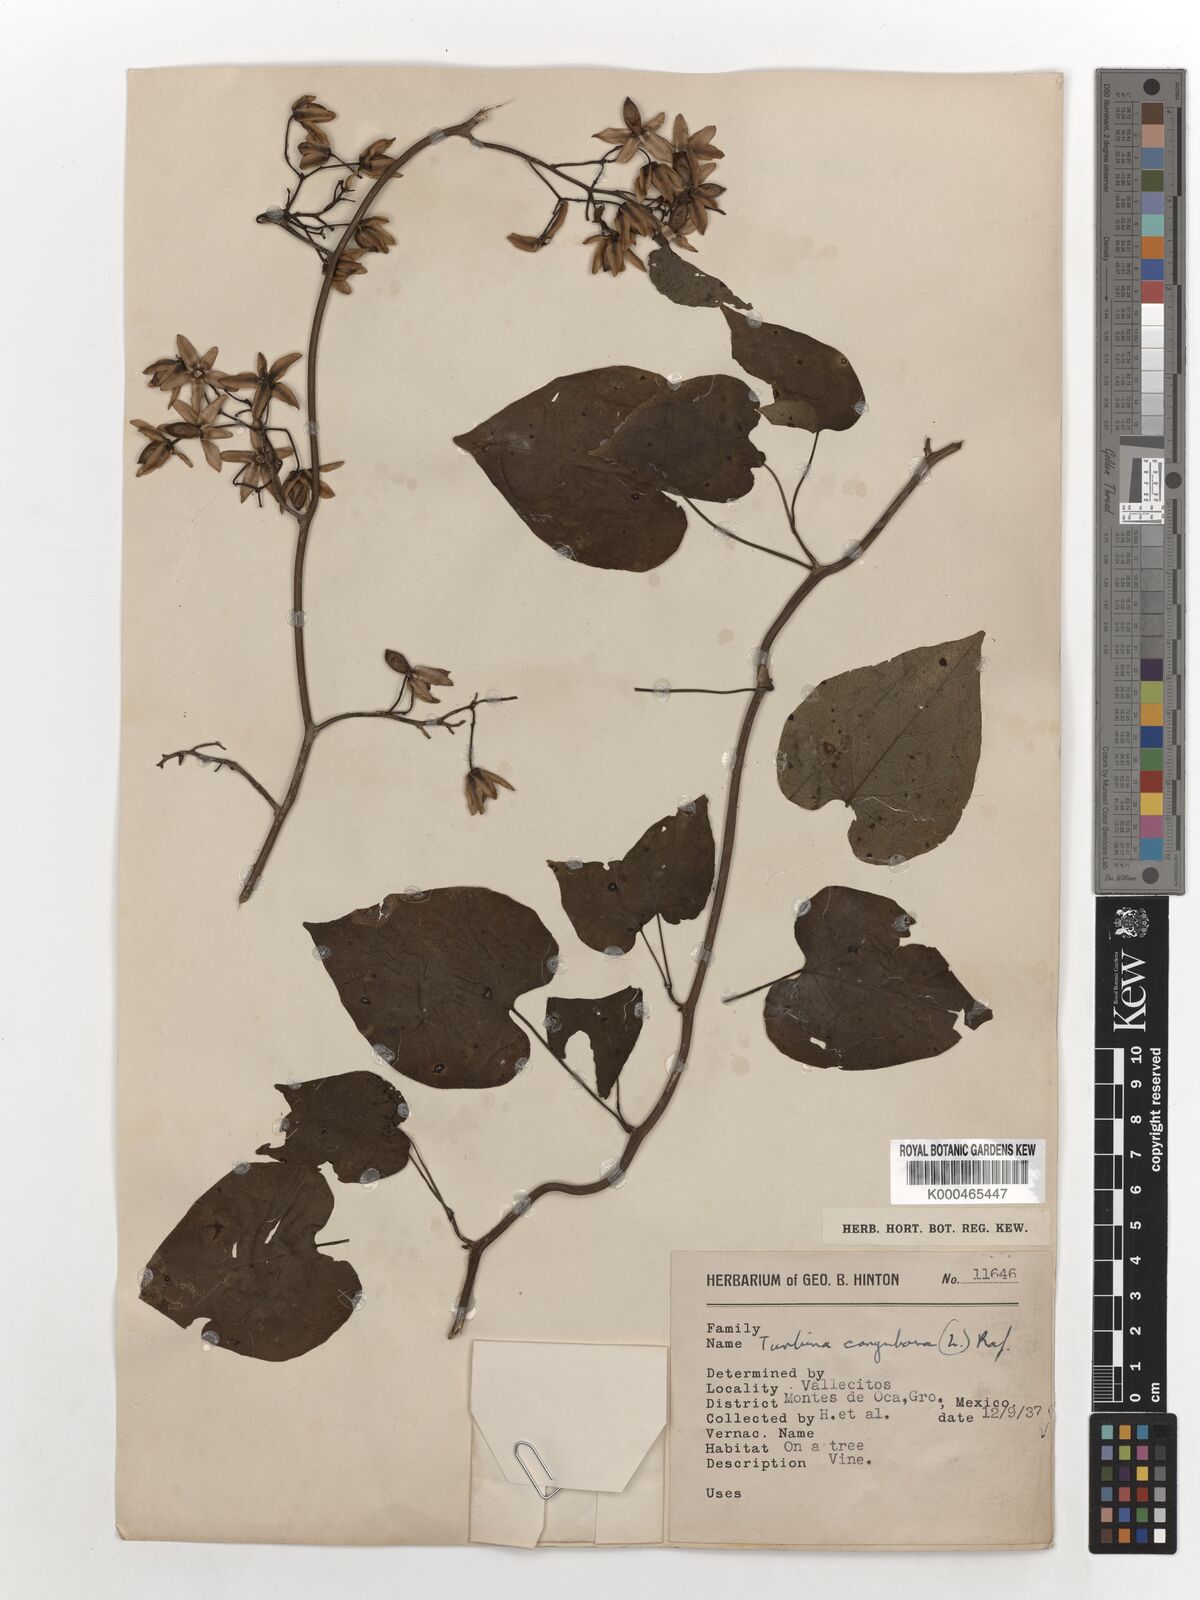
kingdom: Plantae
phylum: Tracheophyta
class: Magnoliopsida
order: Solanales
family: Convolvulaceae
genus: Ipomoea
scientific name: Ipomoea corymbosa
